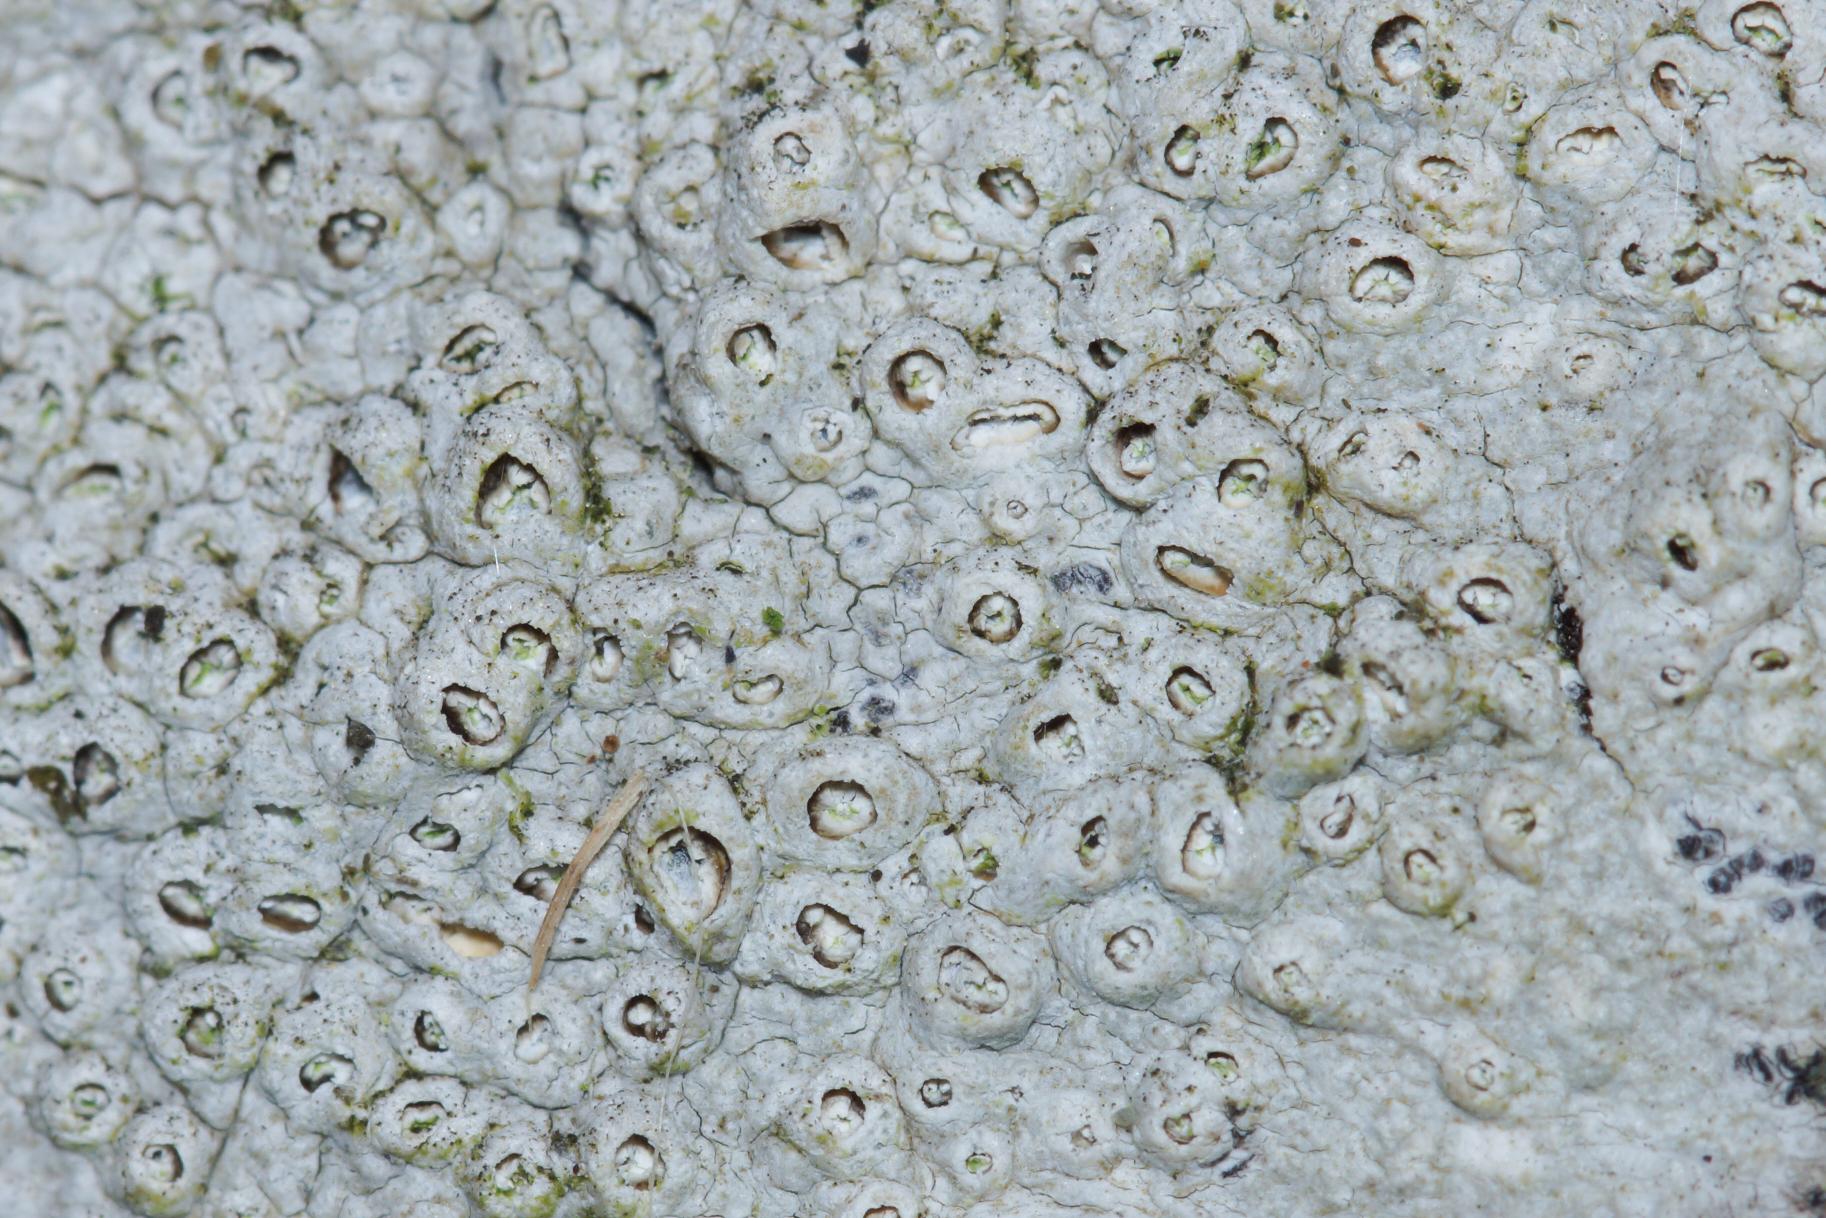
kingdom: Fungi
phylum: Ascomycota
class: Lecanoromycetes
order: Ostropales
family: Graphidaceae
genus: Thelotrema
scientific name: Thelotrema lepadinum
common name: Almindelig slørkantlav
